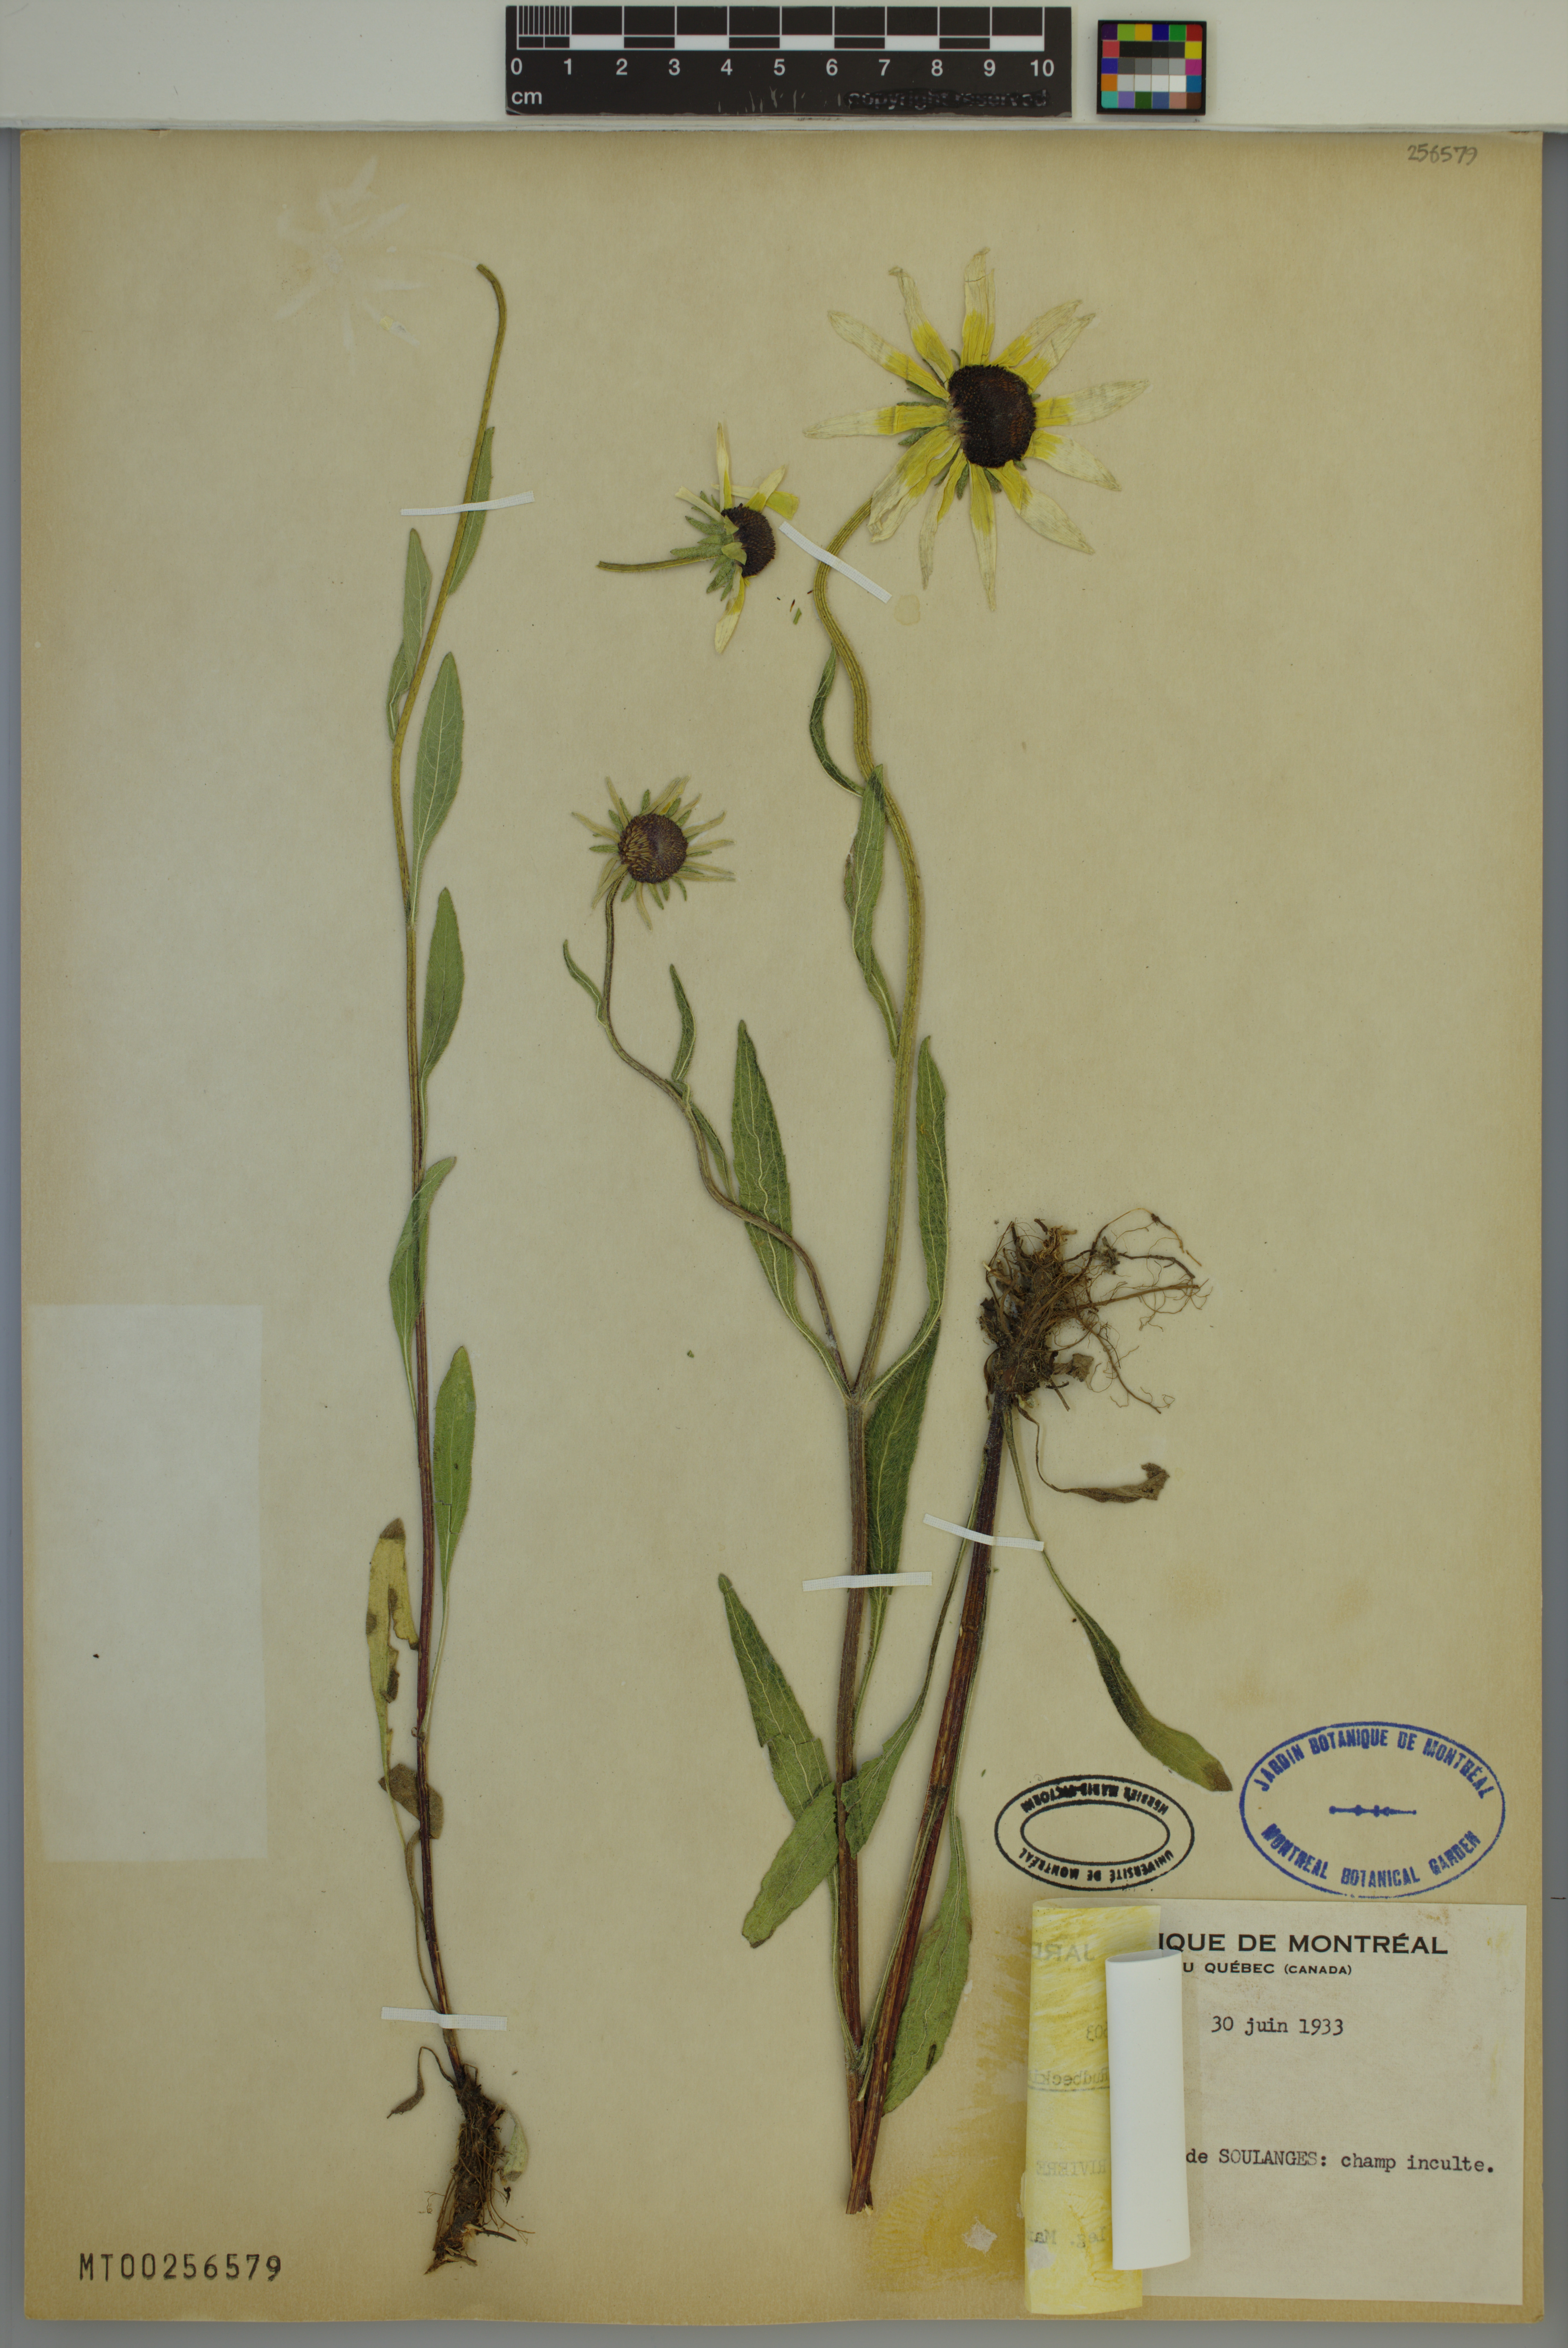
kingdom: Plantae
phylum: Tracheophyta
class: Magnoliopsida
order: Asterales
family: Asteraceae
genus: Rudbeckia
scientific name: Rudbeckia hirta
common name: Black-eyed-susan
